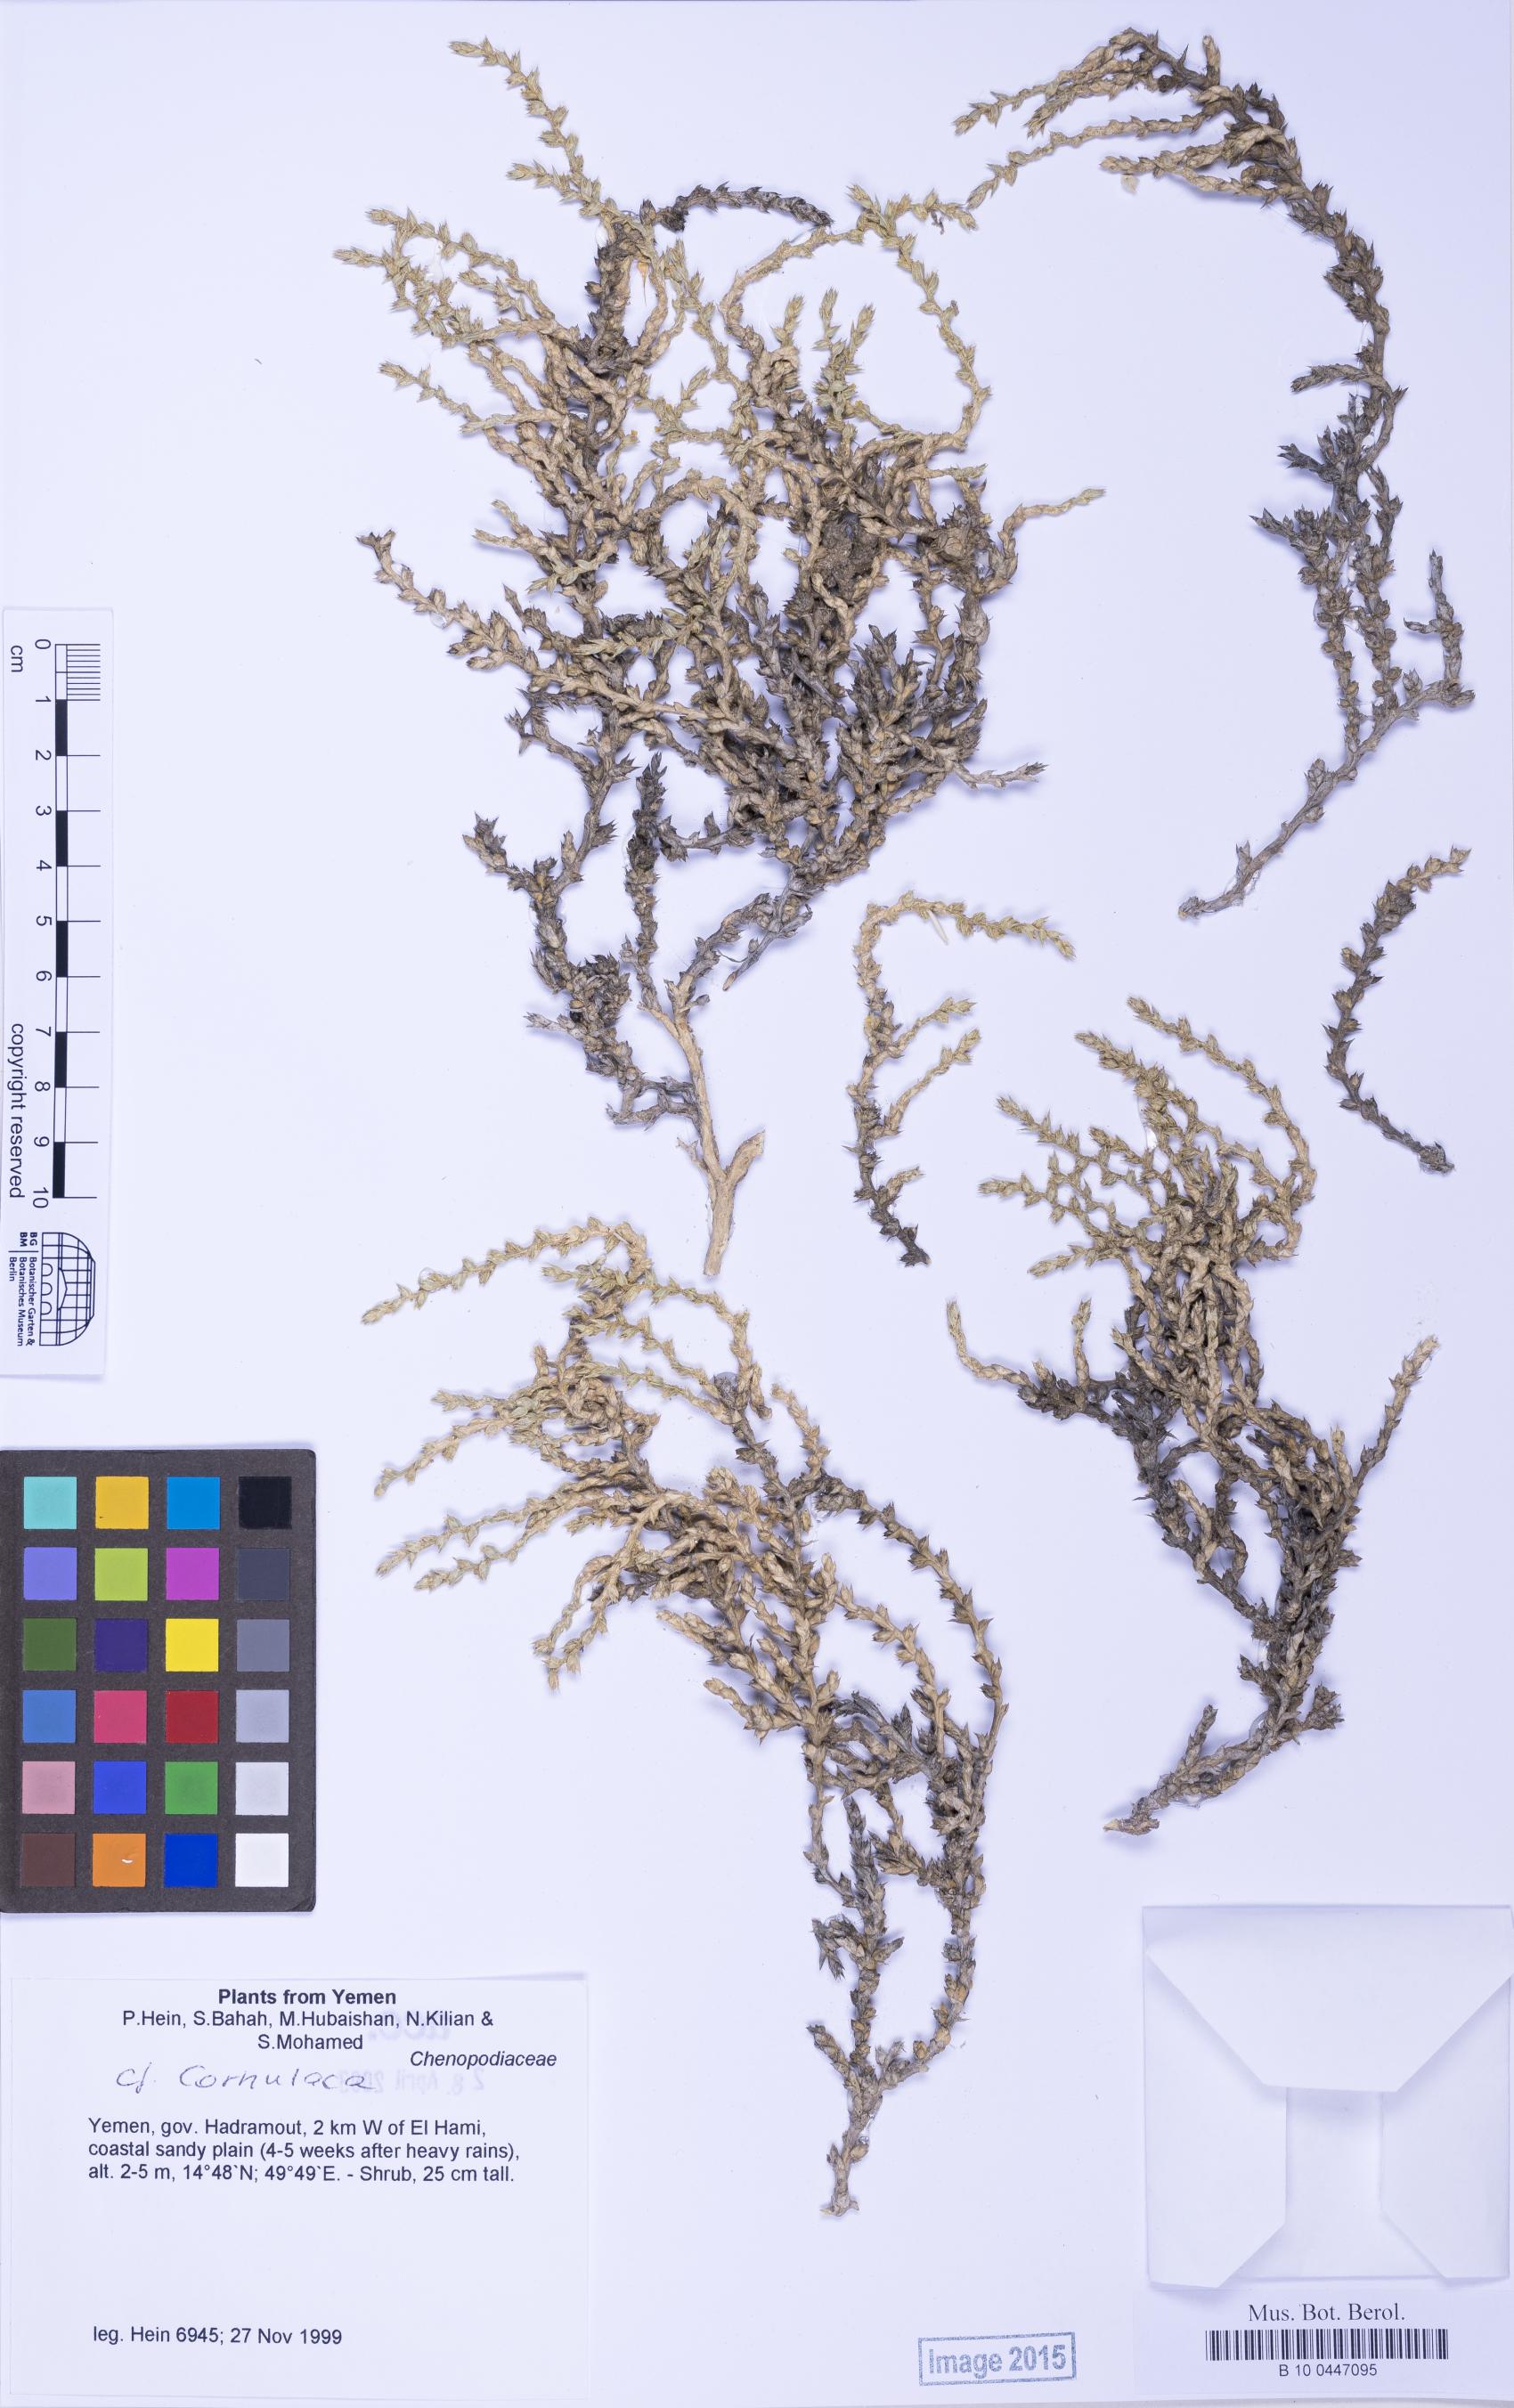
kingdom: Plantae
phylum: Tracheophyta
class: Magnoliopsida
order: Caryophyllales
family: Amaranthaceae
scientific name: Amaranthaceae
